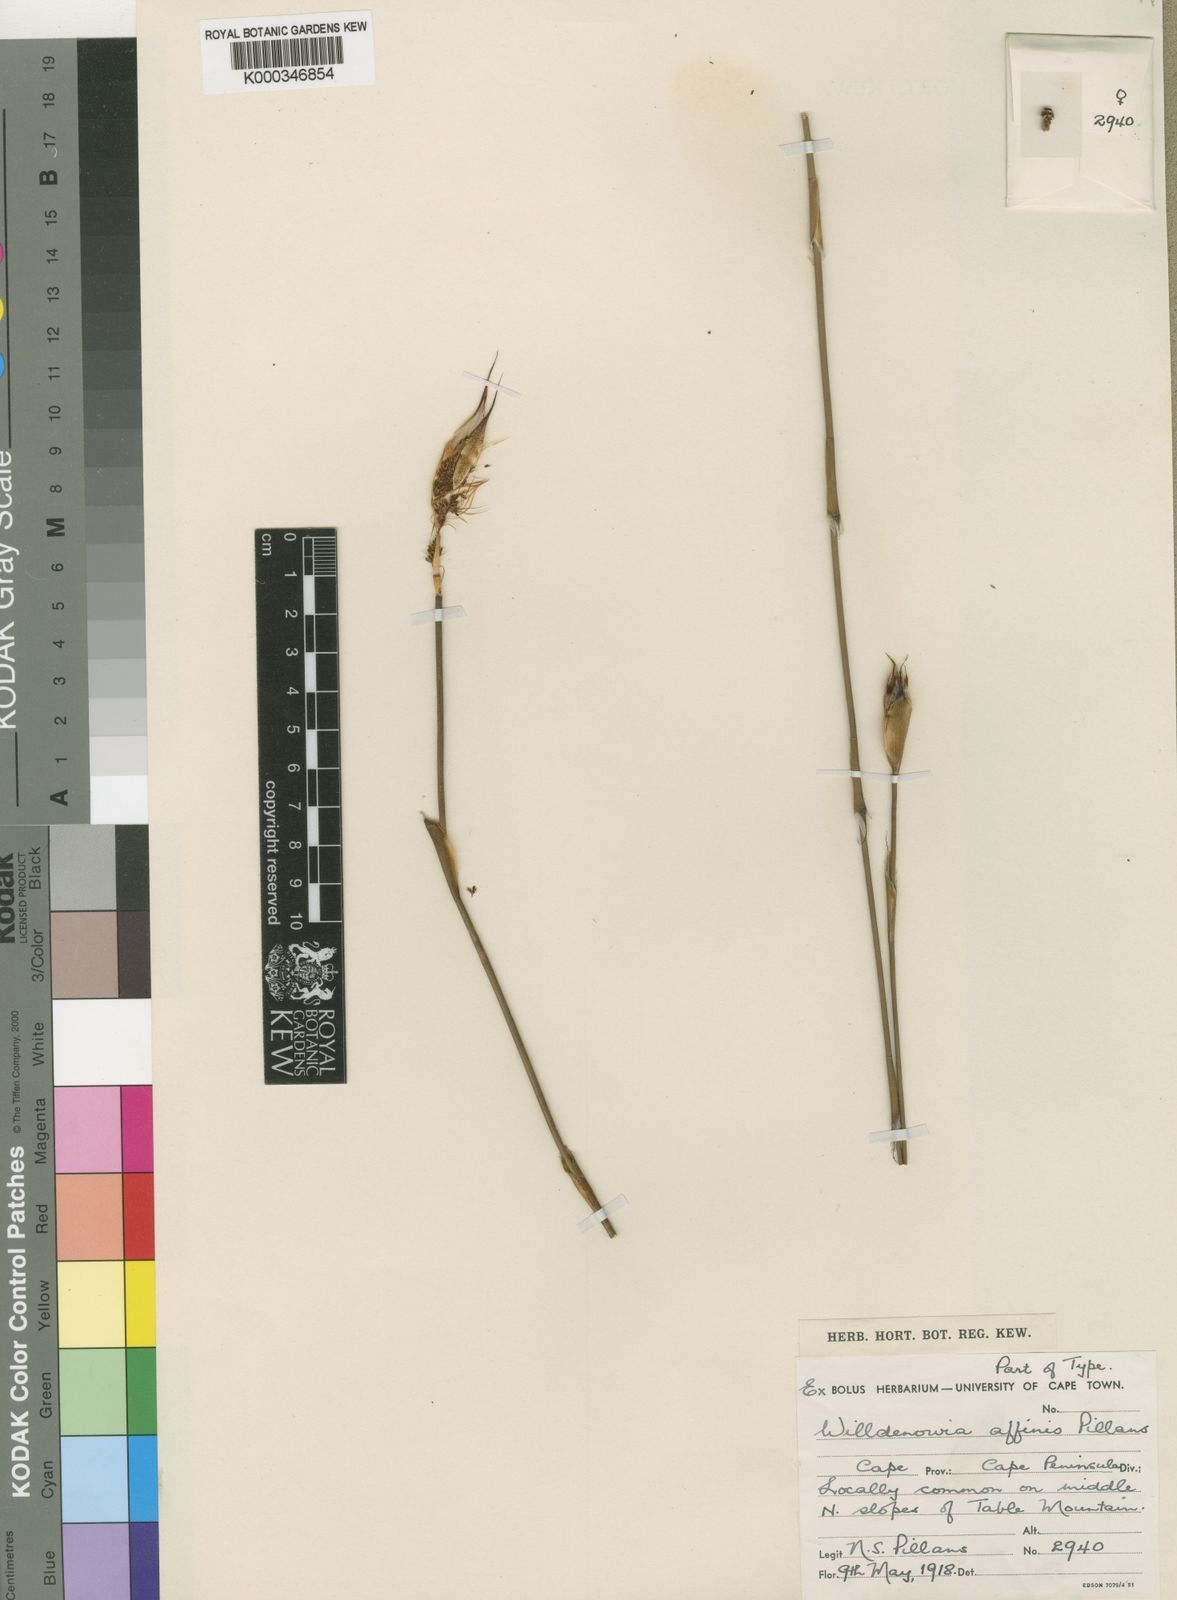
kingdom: Plantae
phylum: Tracheophyta
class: Liliopsida
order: Poales
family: Restionaceae
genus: Willdenowia
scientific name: Willdenowia affinis
